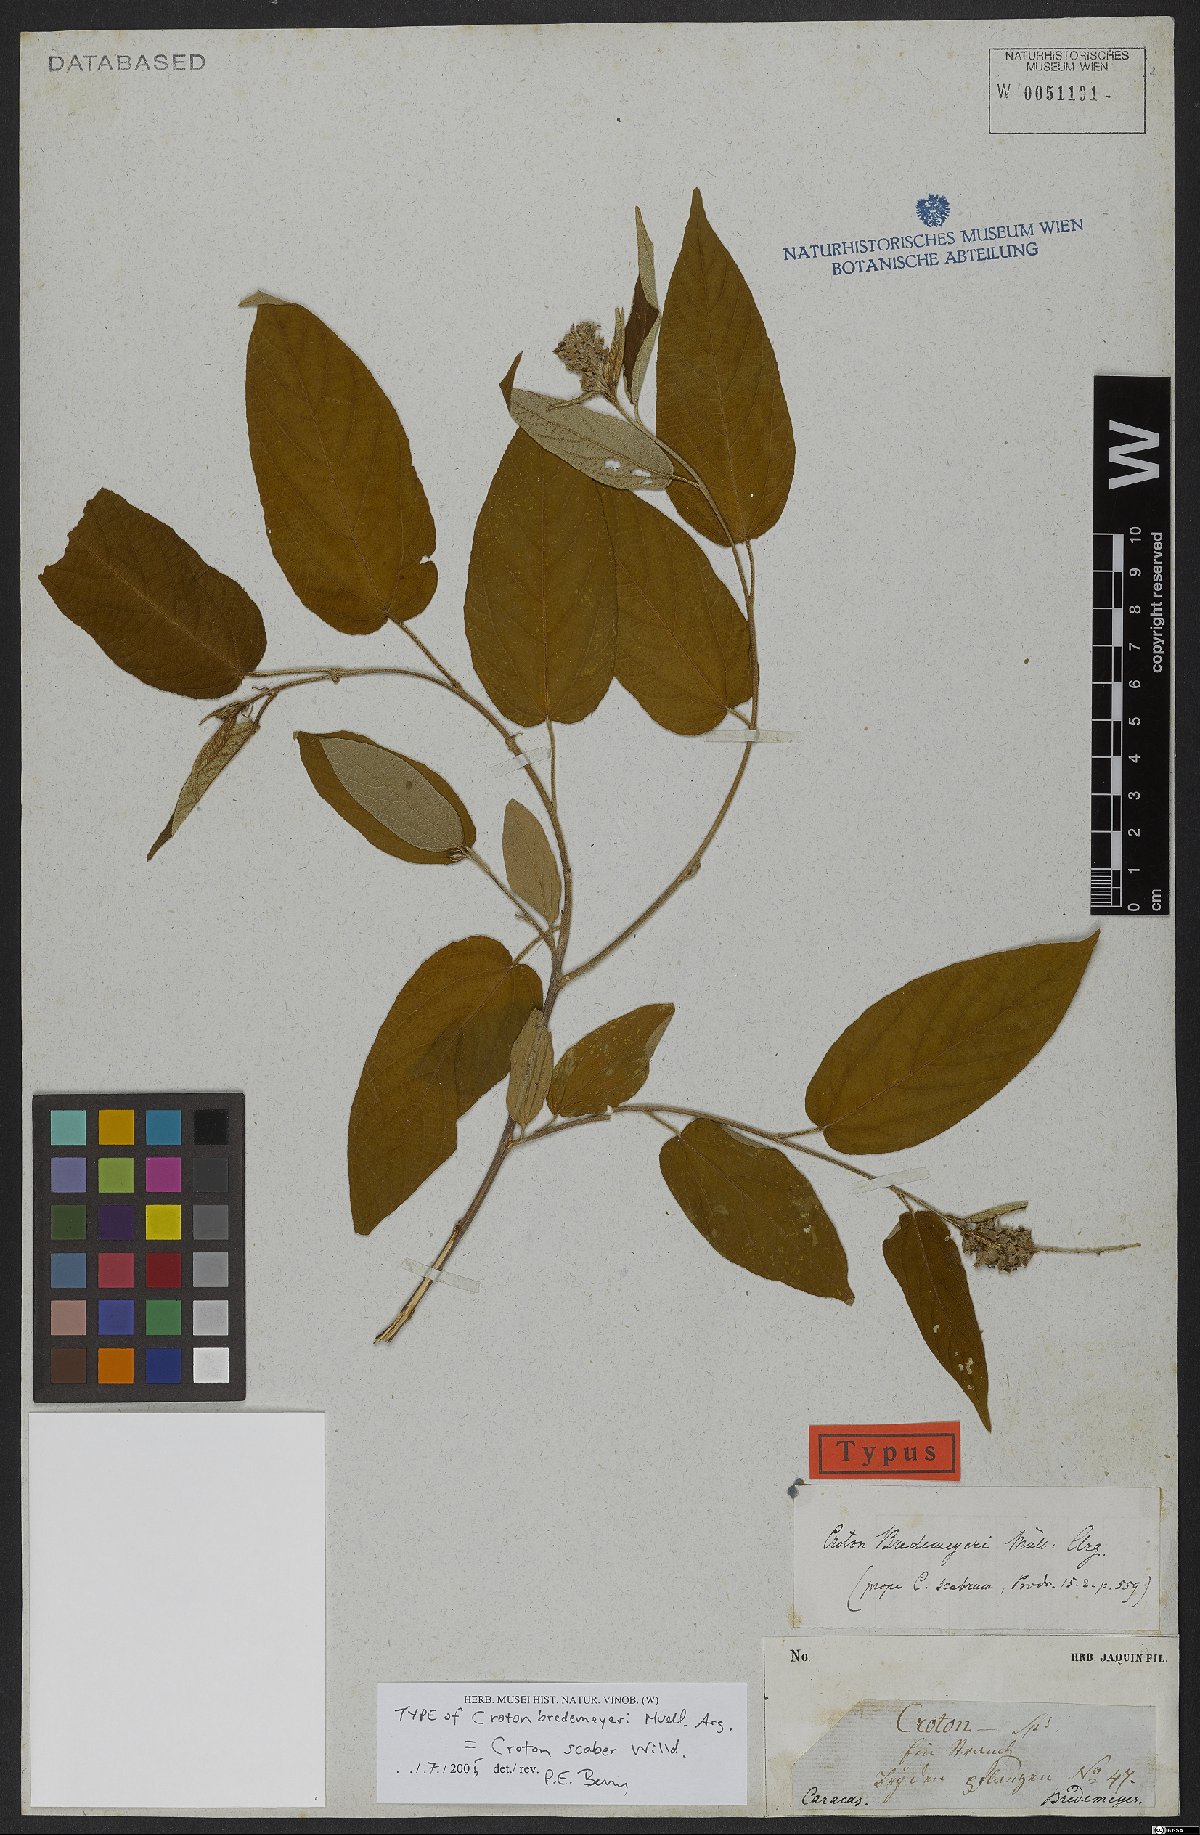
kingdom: Plantae
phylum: Tracheophyta
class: Magnoliopsida
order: Malpighiales
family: Euphorbiaceae
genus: Croton
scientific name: Croton scaber
